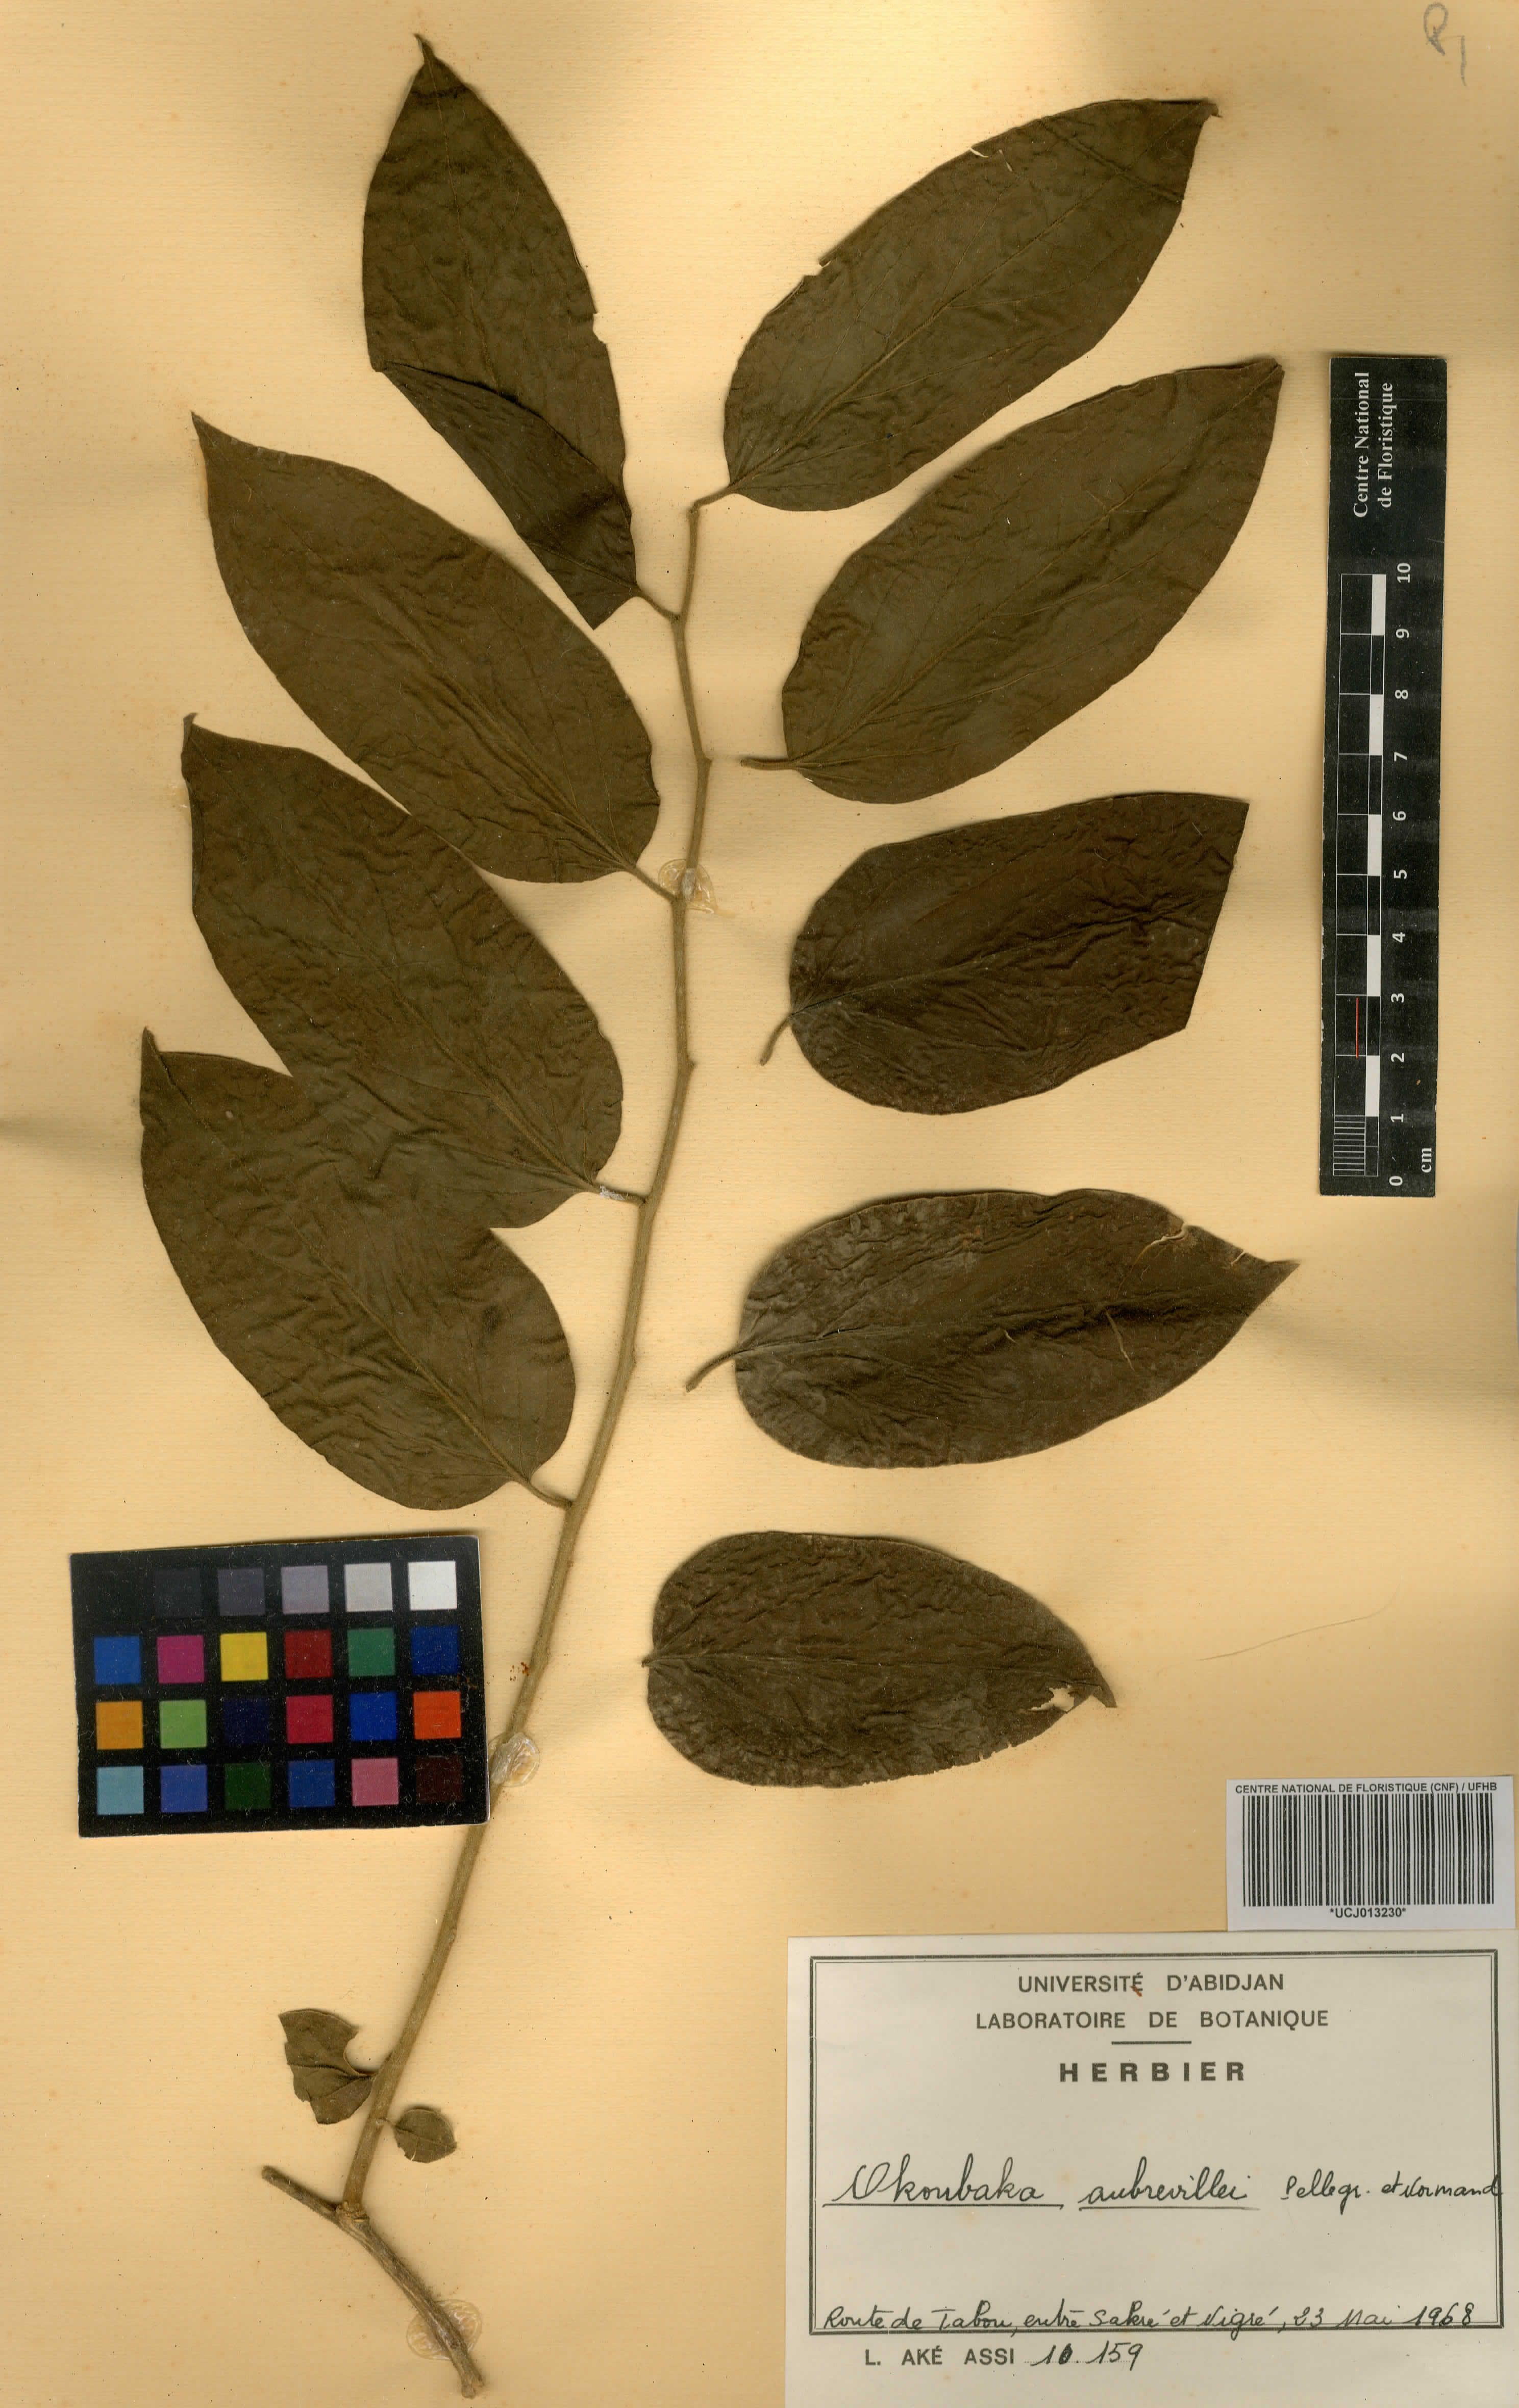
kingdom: Plantae
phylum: Tracheophyta
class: Magnoliopsida
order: Santalales
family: Cervantesiaceae
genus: Okoubaka
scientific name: Okoubaka aubrevillei
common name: Death tree
